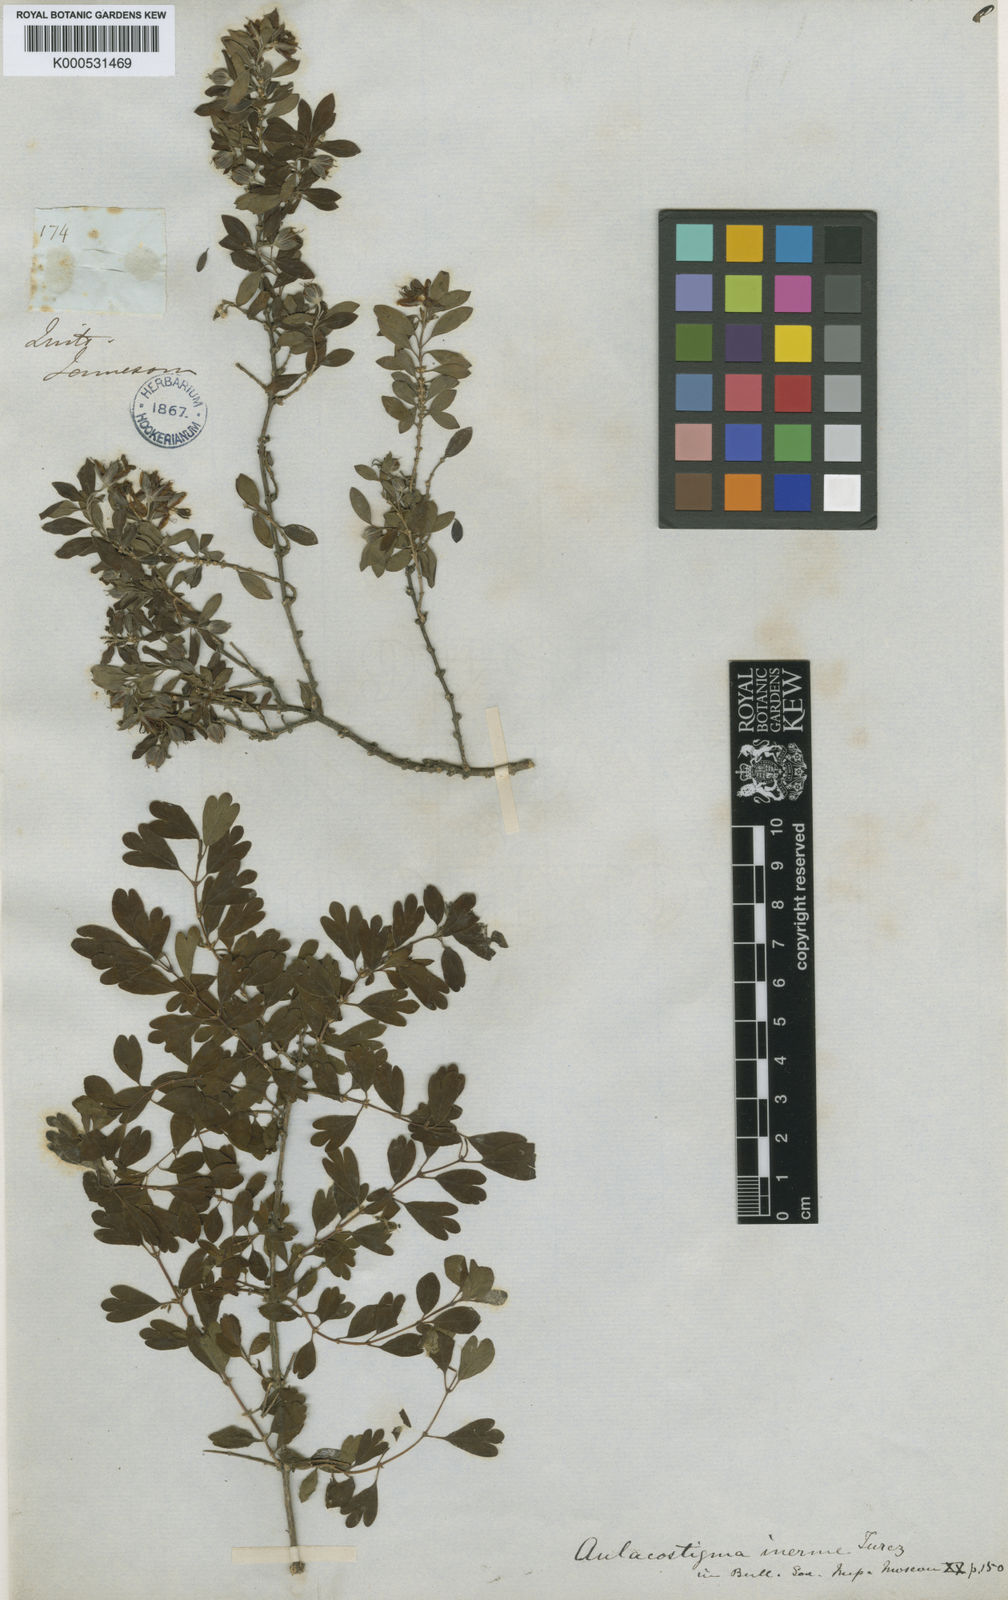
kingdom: Plantae
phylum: Tracheophyta
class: Magnoliopsida
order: Geraniales
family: Vivianiaceae
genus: Rhynchotheca
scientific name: Rhynchotheca spinosa
